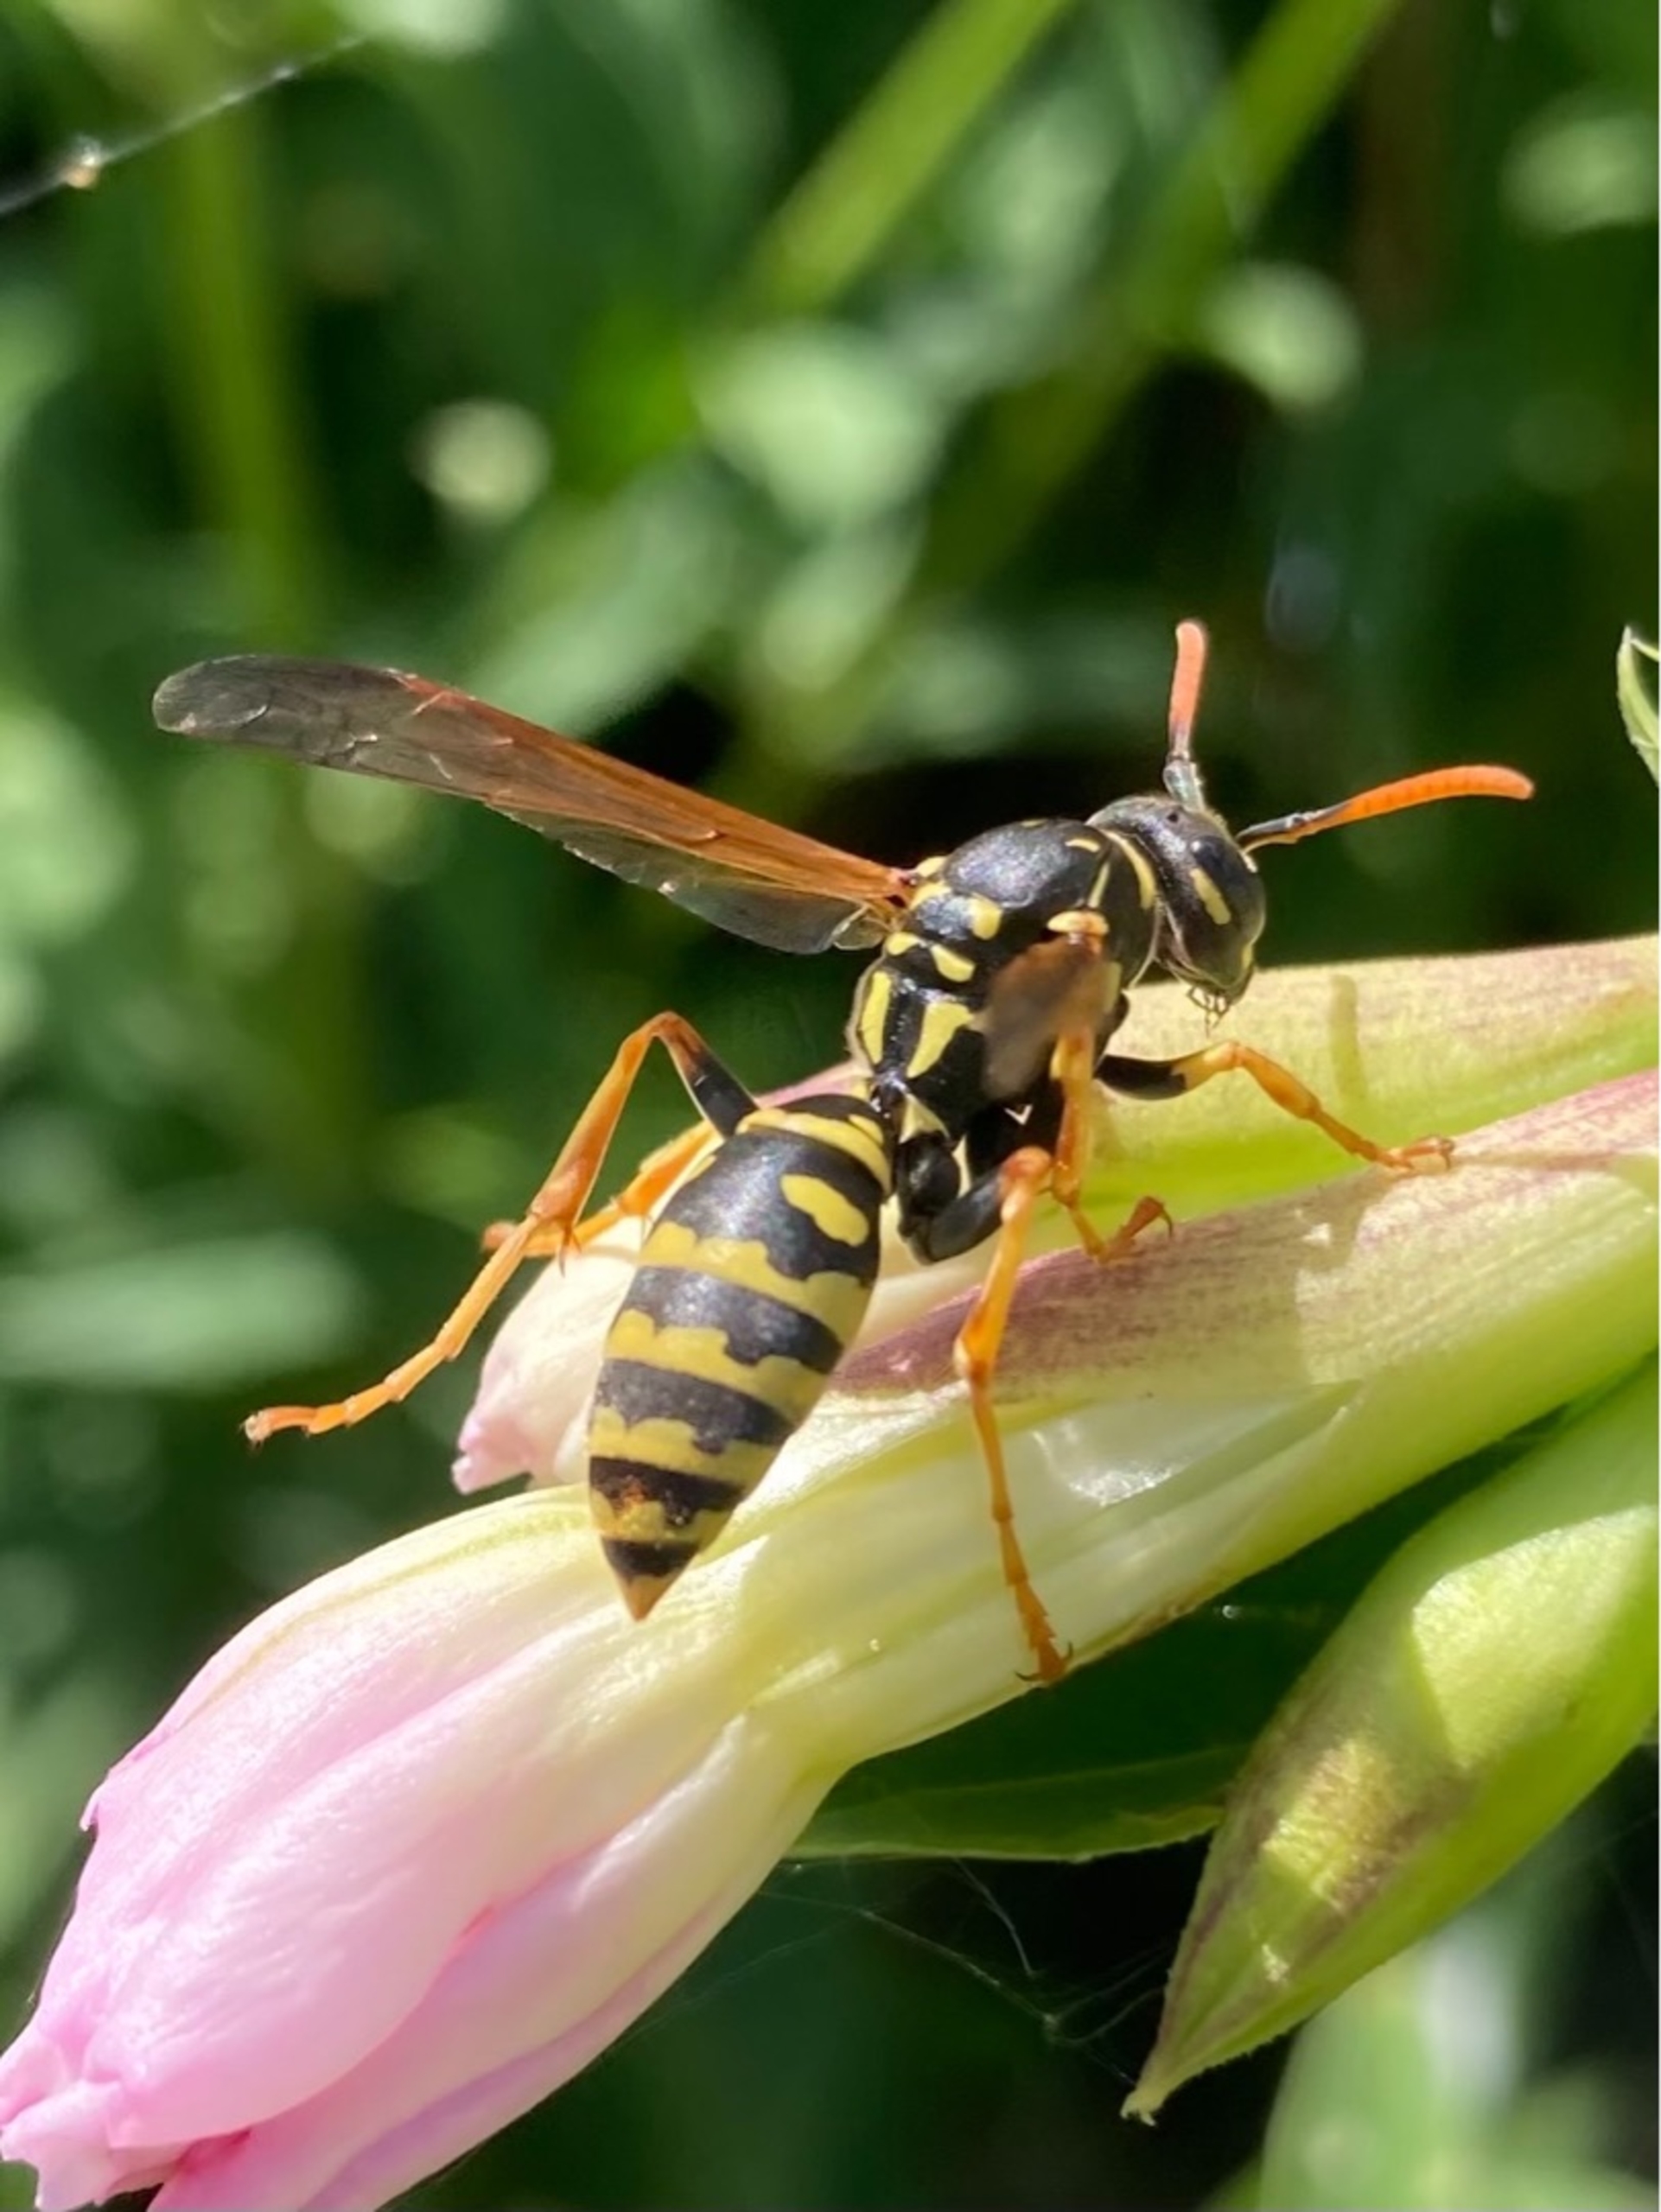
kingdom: Animalia
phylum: Arthropoda
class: Insecta
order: Hymenoptera
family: Eumenidae
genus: Polistes
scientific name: Polistes dominula
